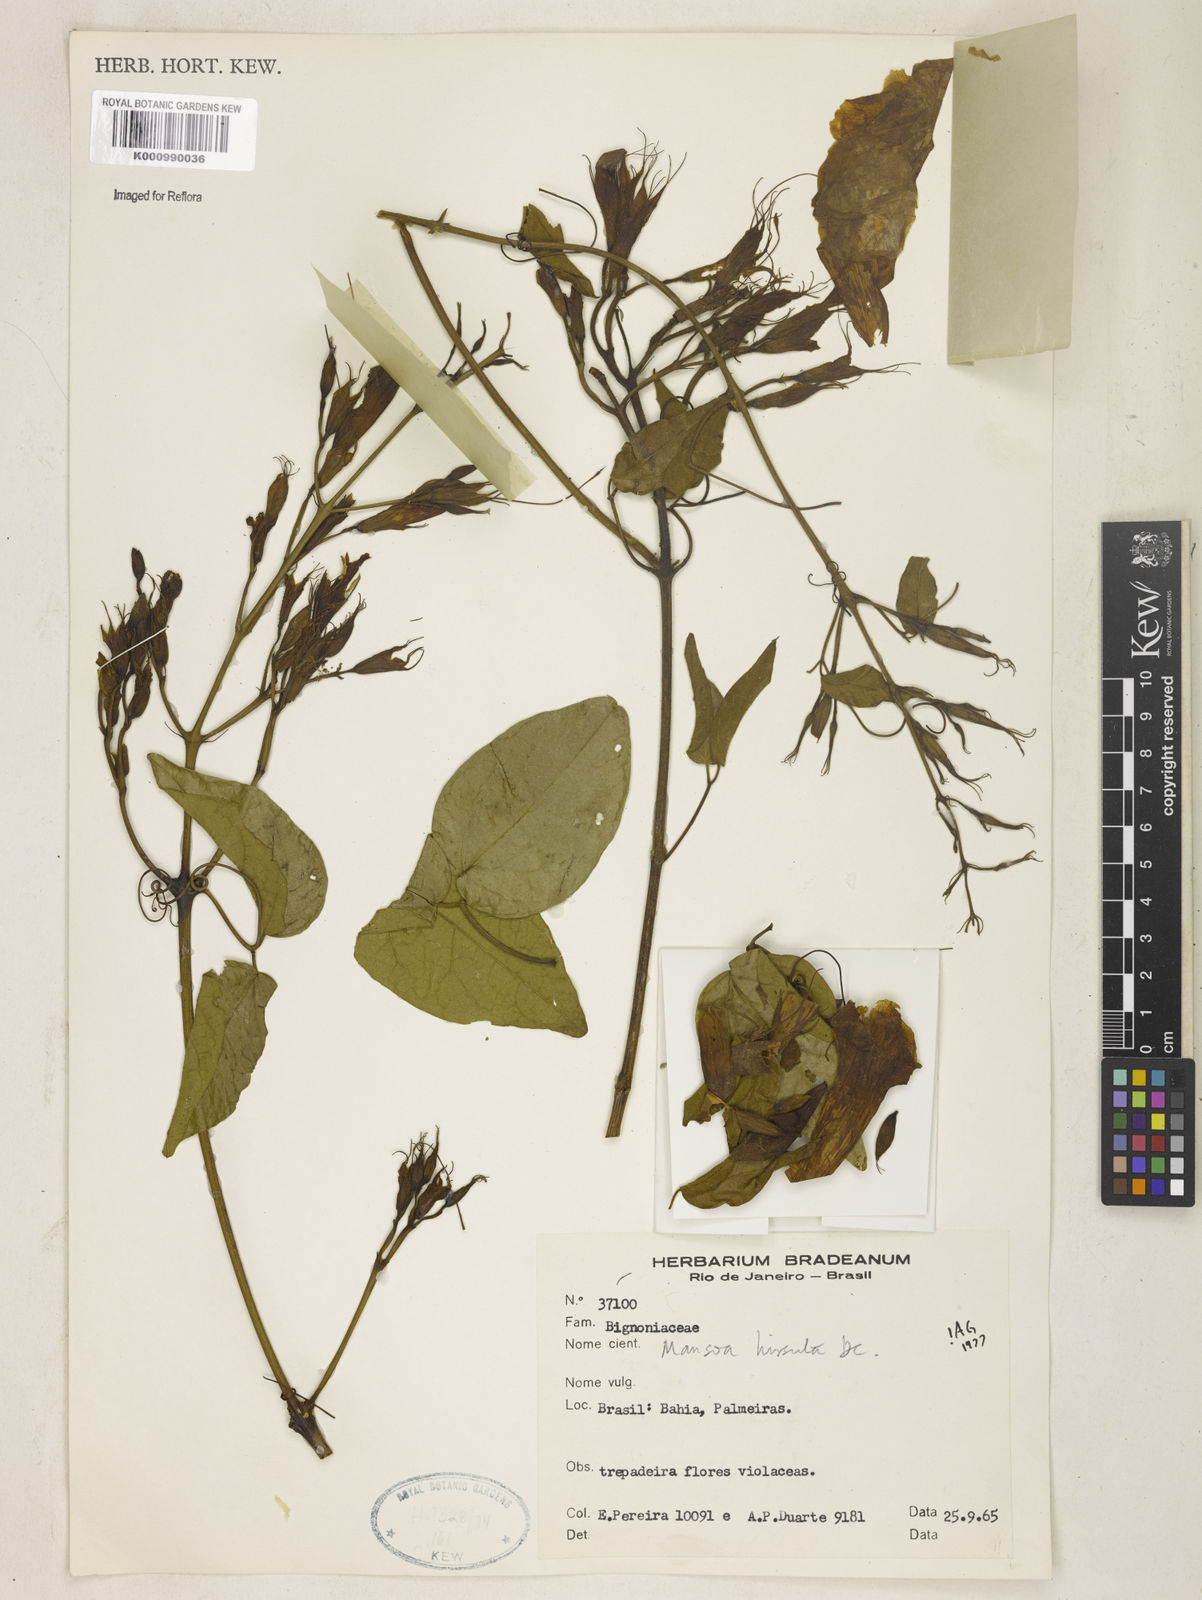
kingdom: Plantae
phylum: Tracheophyta
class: Magnoliopsida
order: Lamiales
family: Bignoniaceae
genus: Mansoa
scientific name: Mansoa hirsuta
